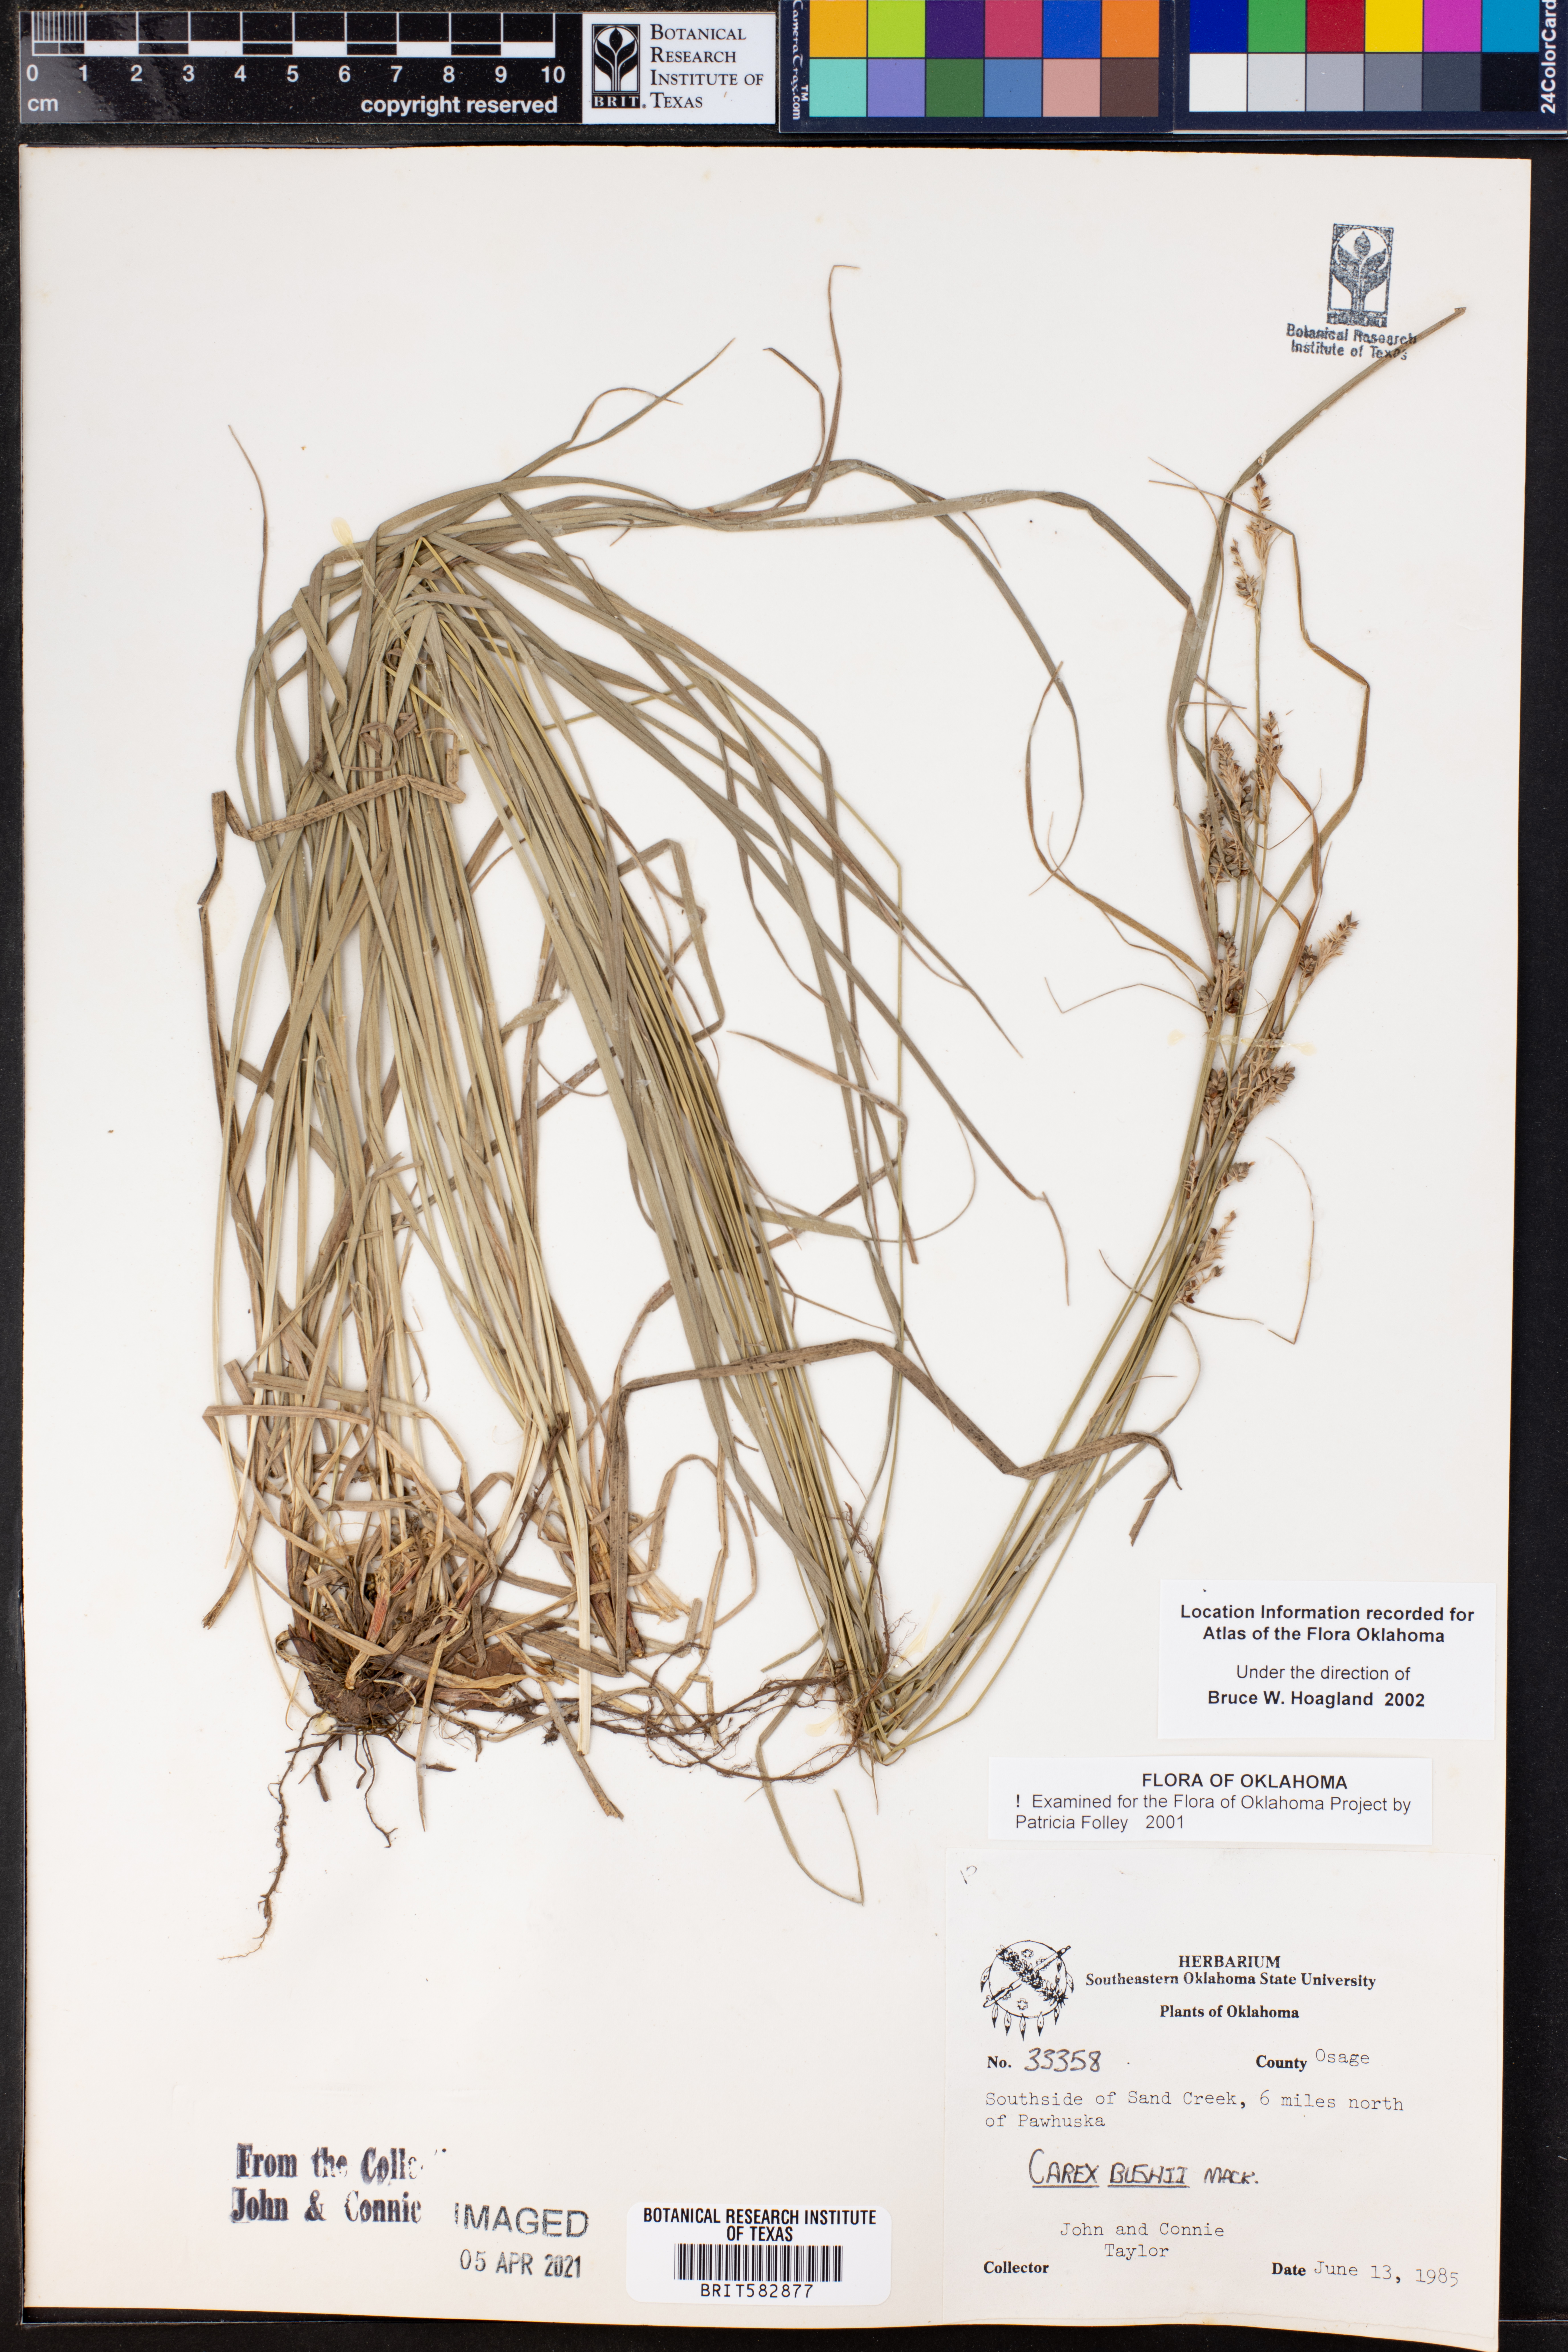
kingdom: Plantae
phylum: Tracheophyta
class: Liliopsida
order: Poales
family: Cyperaceae
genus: Carex
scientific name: Carex bushii
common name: Bush's sedge
